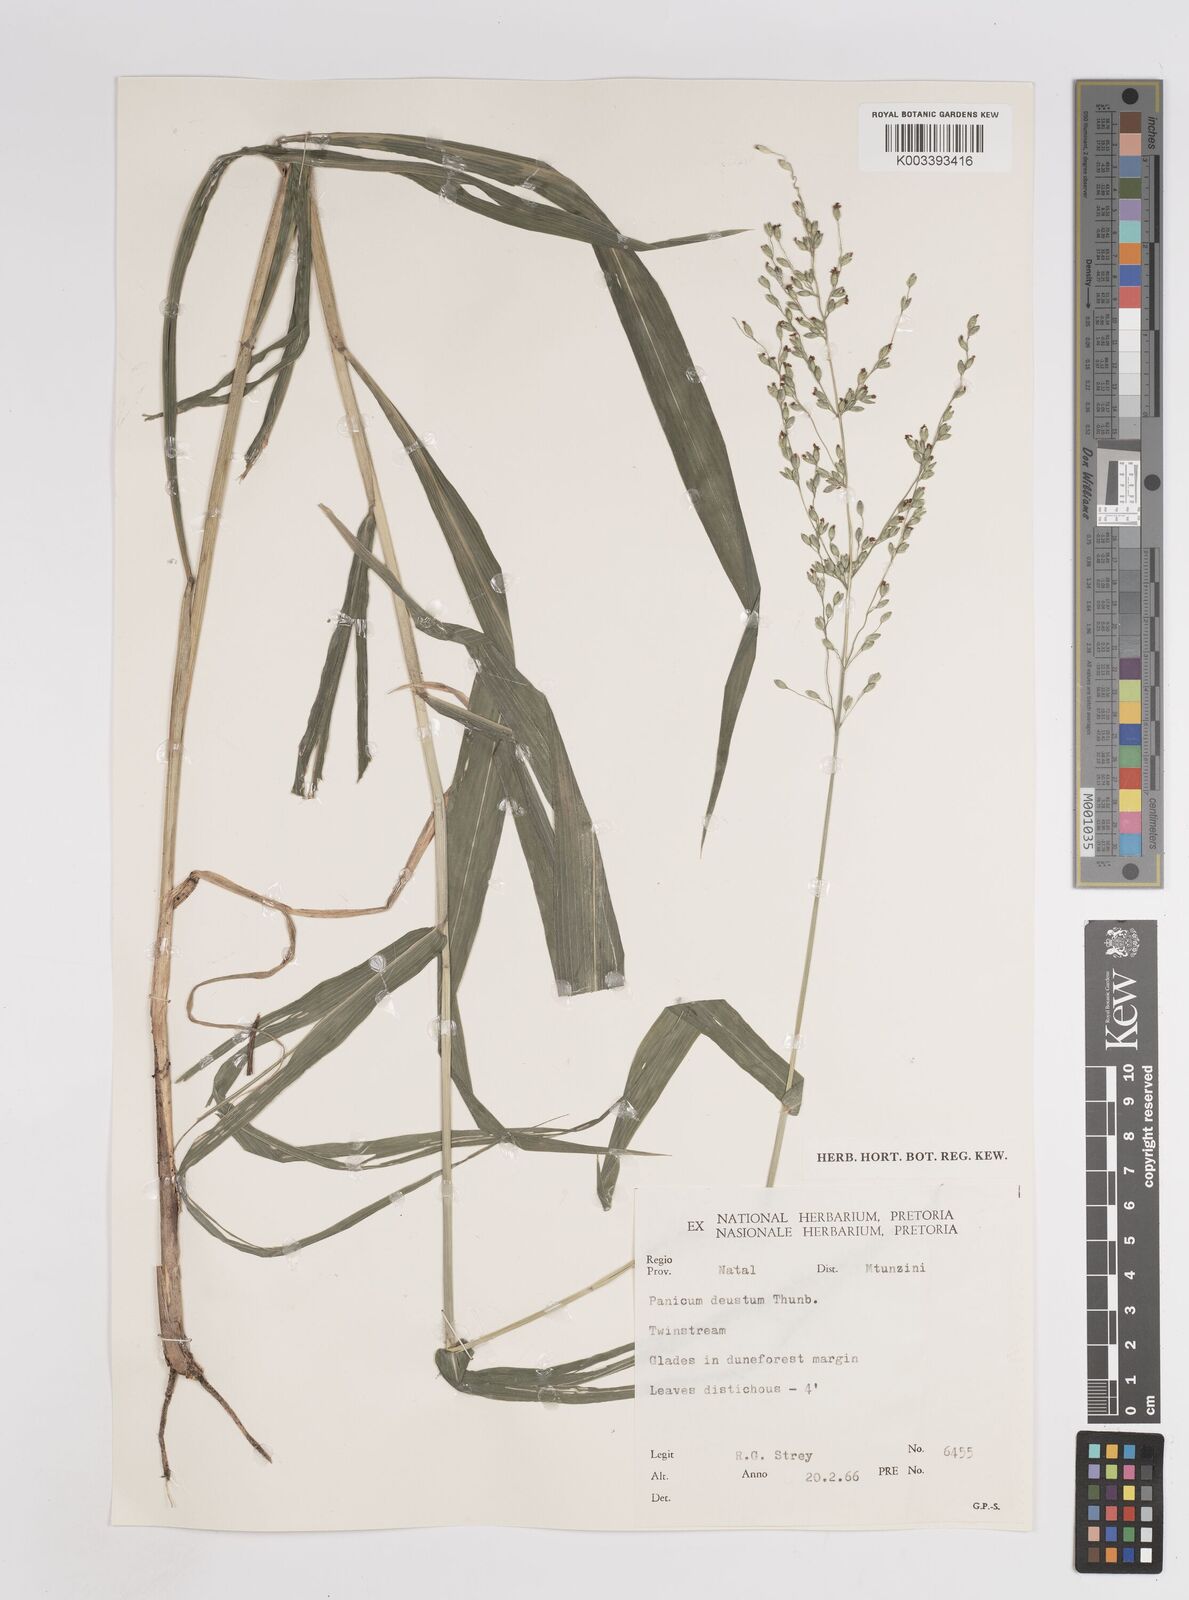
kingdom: Plantae
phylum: Tracheophyta
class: Liliopsida
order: Poales
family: Poaceae
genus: Panicum
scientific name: Panicum deustum
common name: Reed panicum
